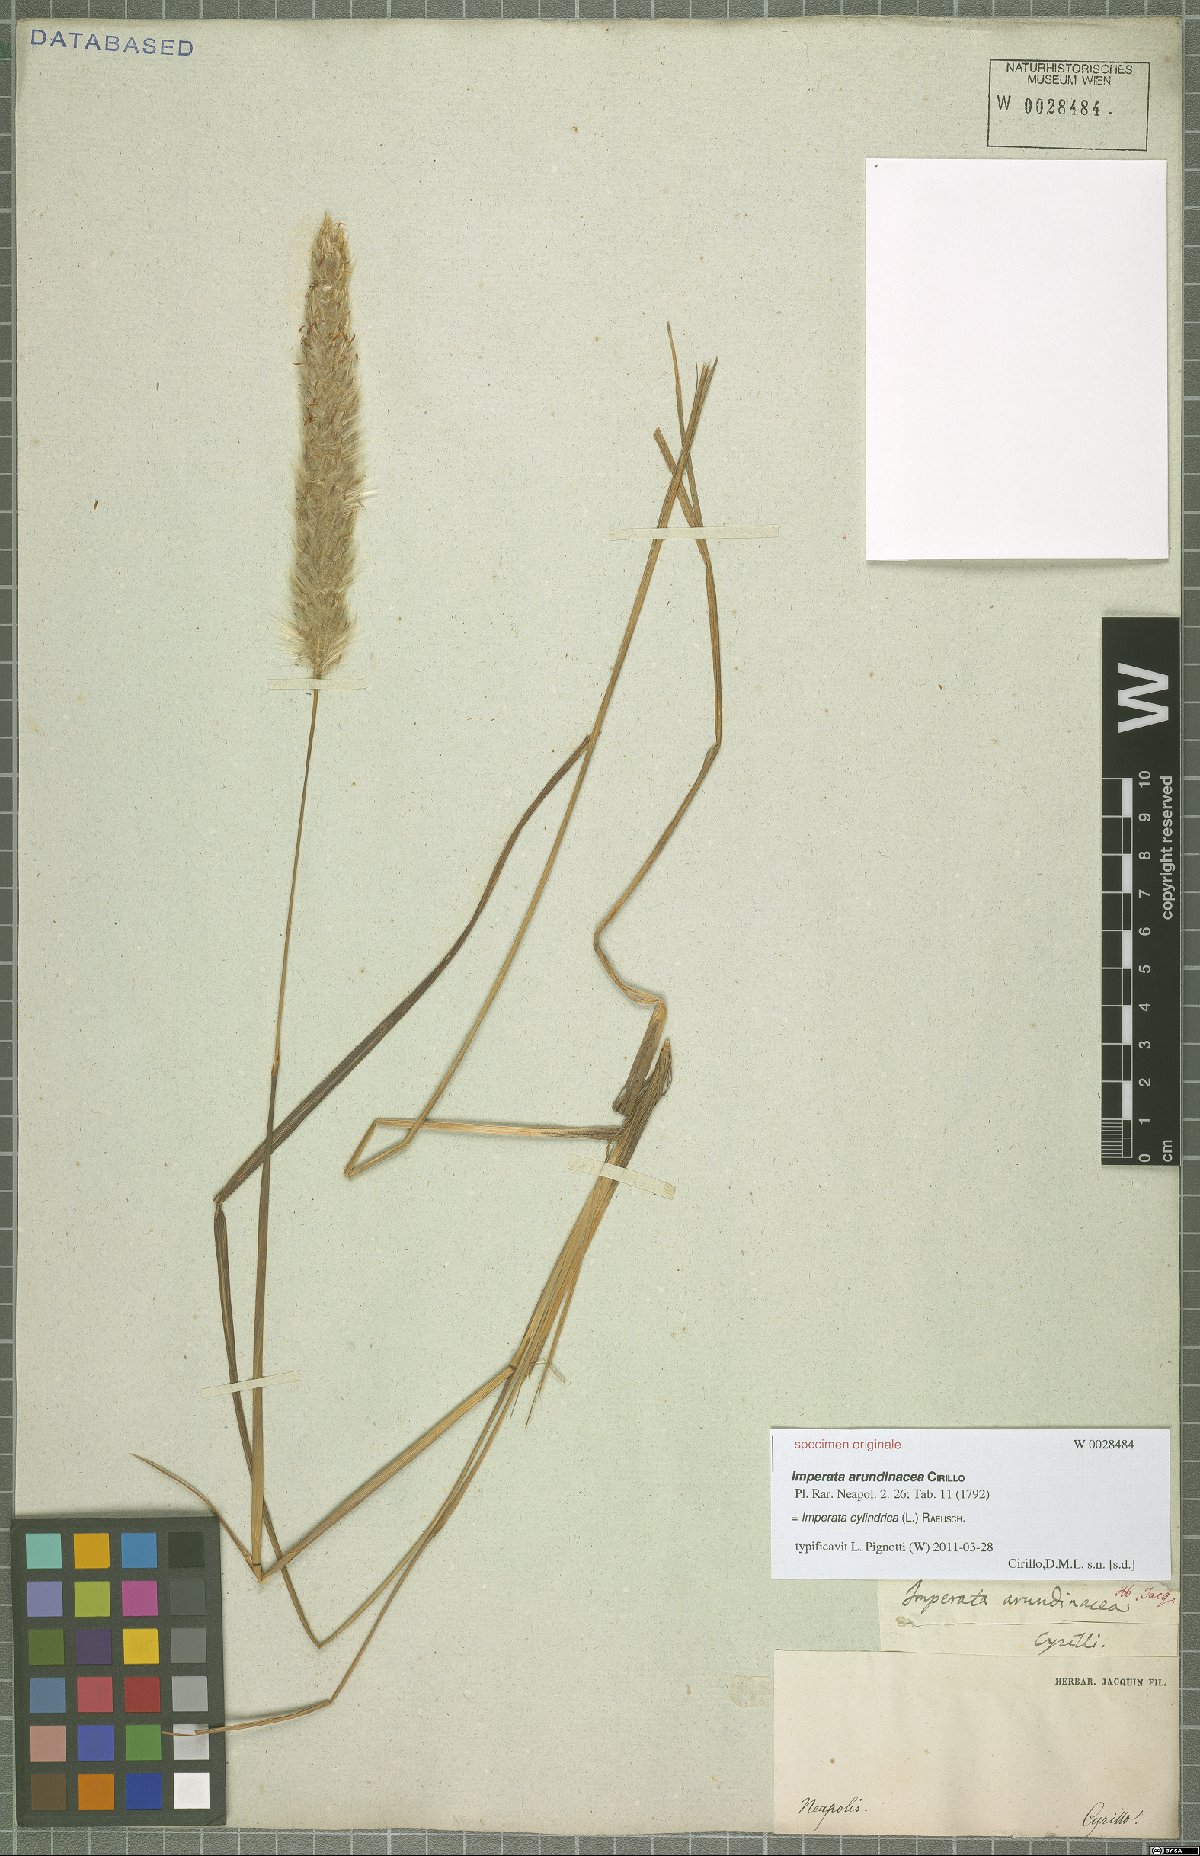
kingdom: Plantae
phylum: Tracheophyta
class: Liliopsida
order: Poales
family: Poaceae
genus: Imperata
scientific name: Imperata cylindrica
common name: Cogongrass
